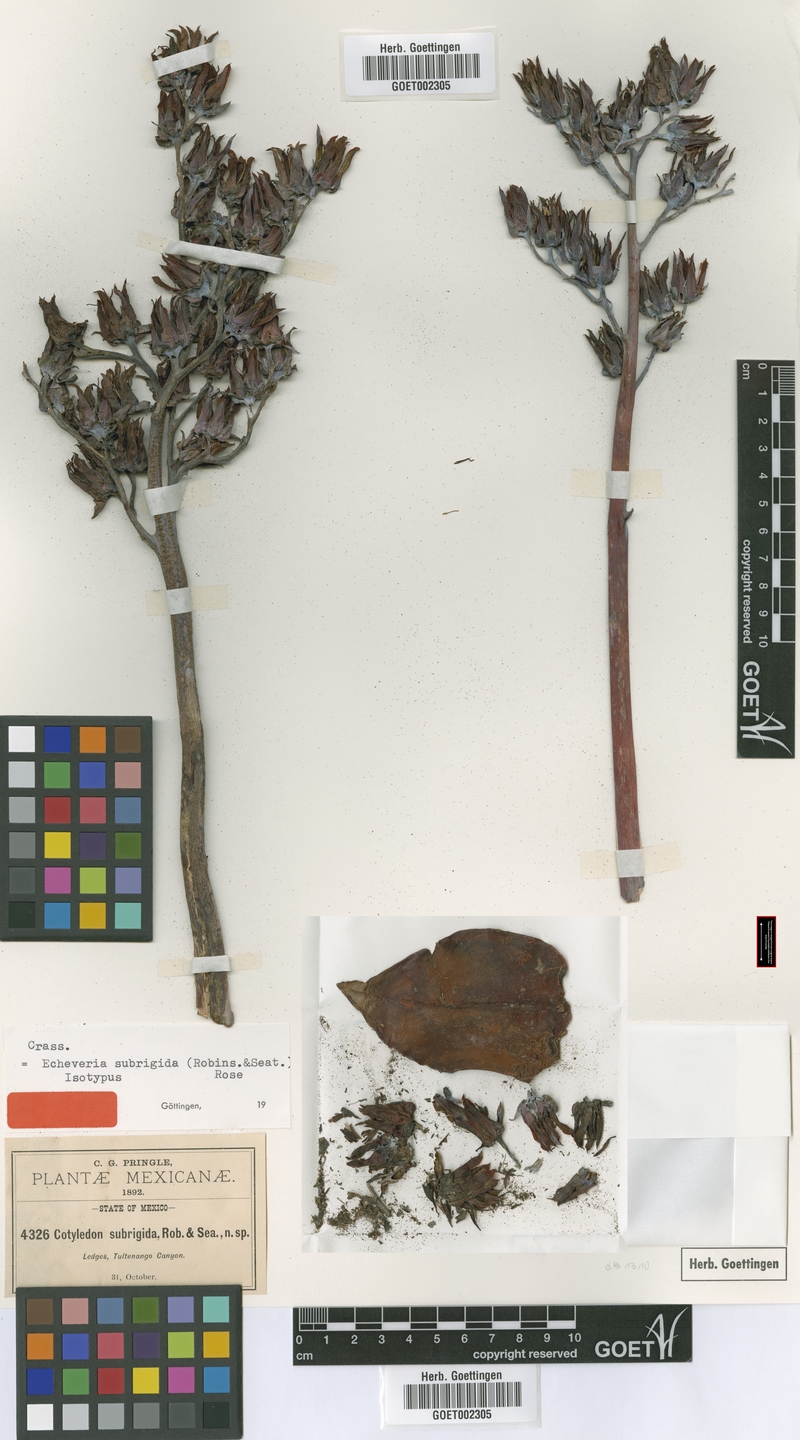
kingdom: Plantae
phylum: Tracheophyta
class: Magnoliopsida
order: Saxifragales
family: Crassulaceae
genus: Echeveria
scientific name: Echeveria subrigida
